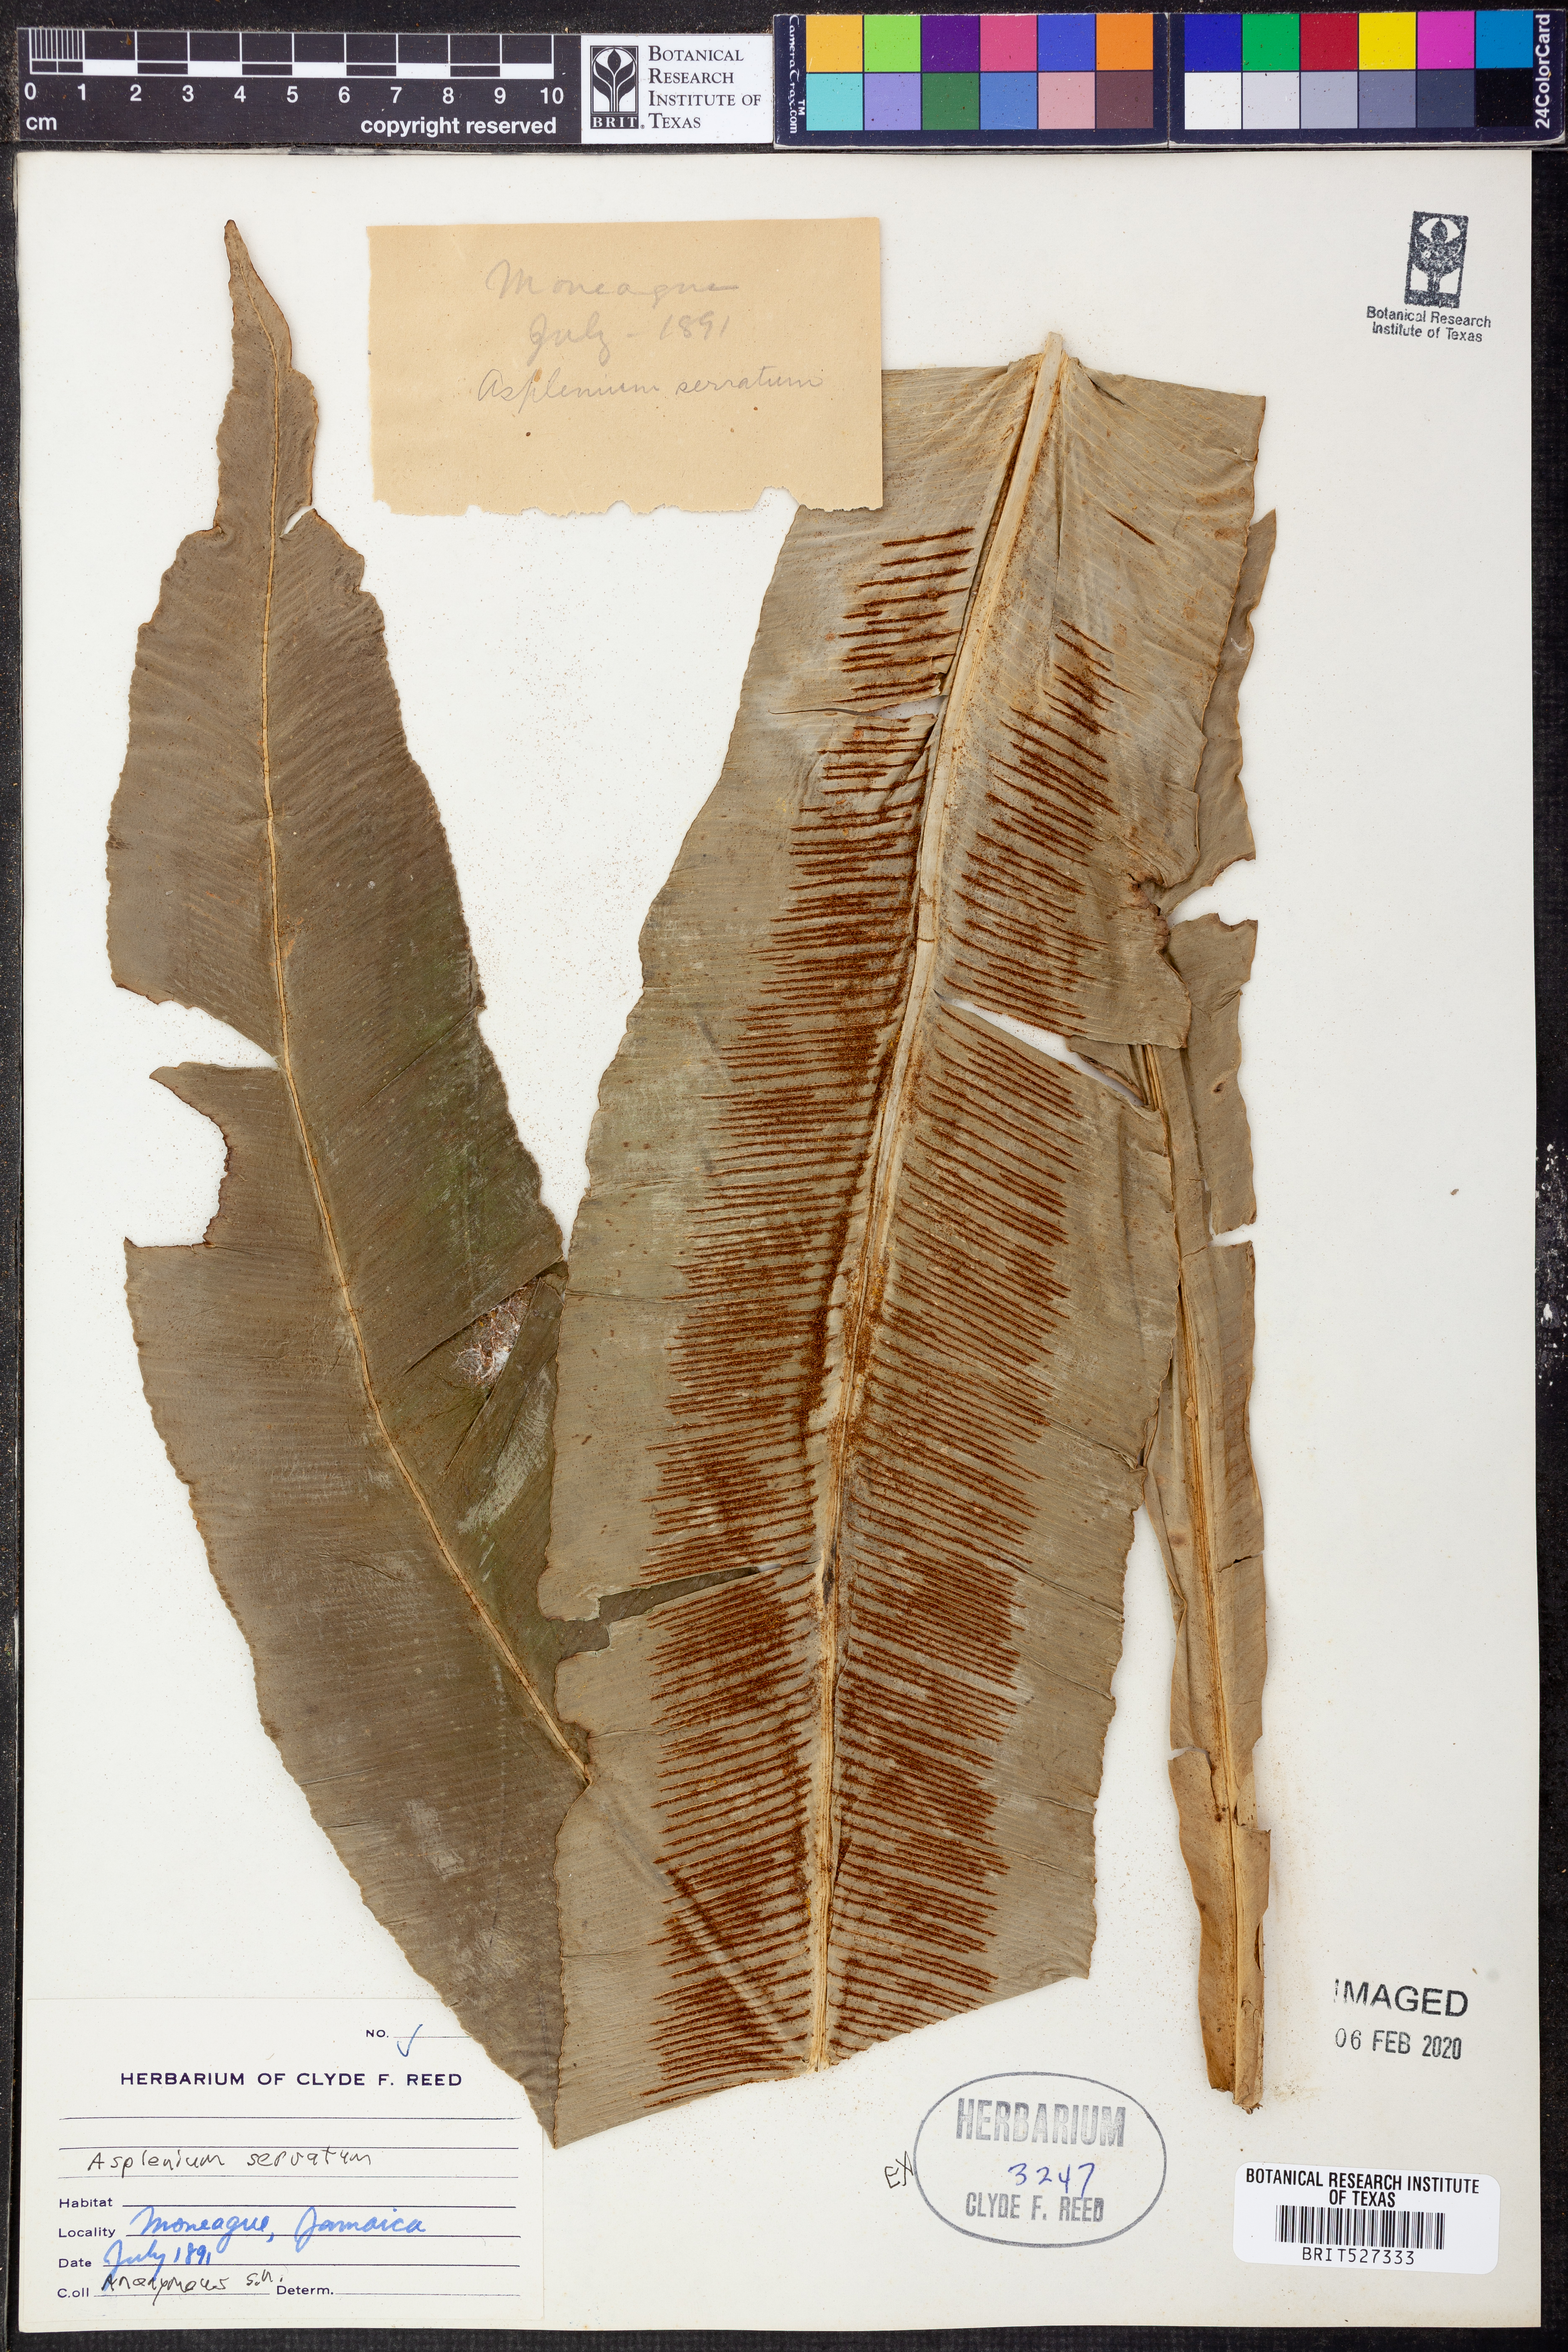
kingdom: Plantae
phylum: Tracheophyta
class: Polypodiopsida
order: Polypodiales
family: Aspleniaceae
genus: Asplenium
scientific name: Asplenium serratum
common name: Wild birdnest fern
